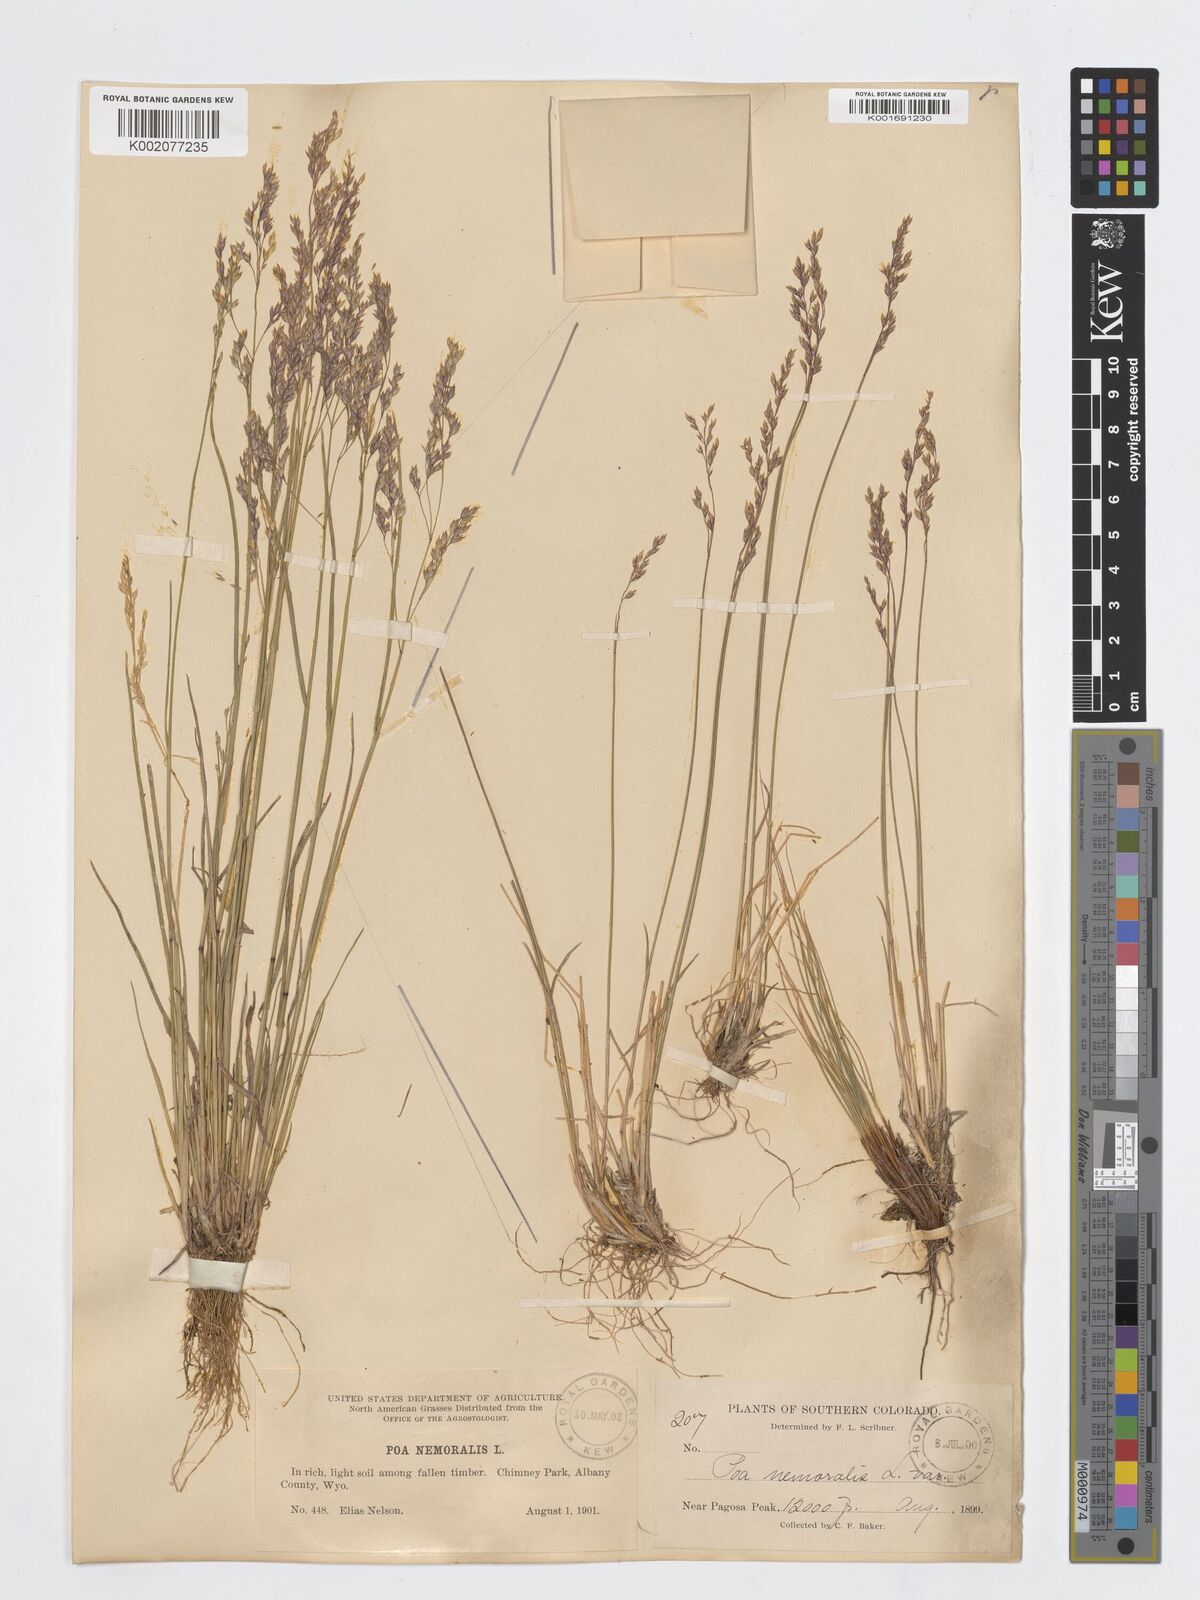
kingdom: Plantae
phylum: Tracheophyta
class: Liliopsida
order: Poales
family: Poaceae
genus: Poa
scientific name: Poa nemoralis
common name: Wood bluegrass
